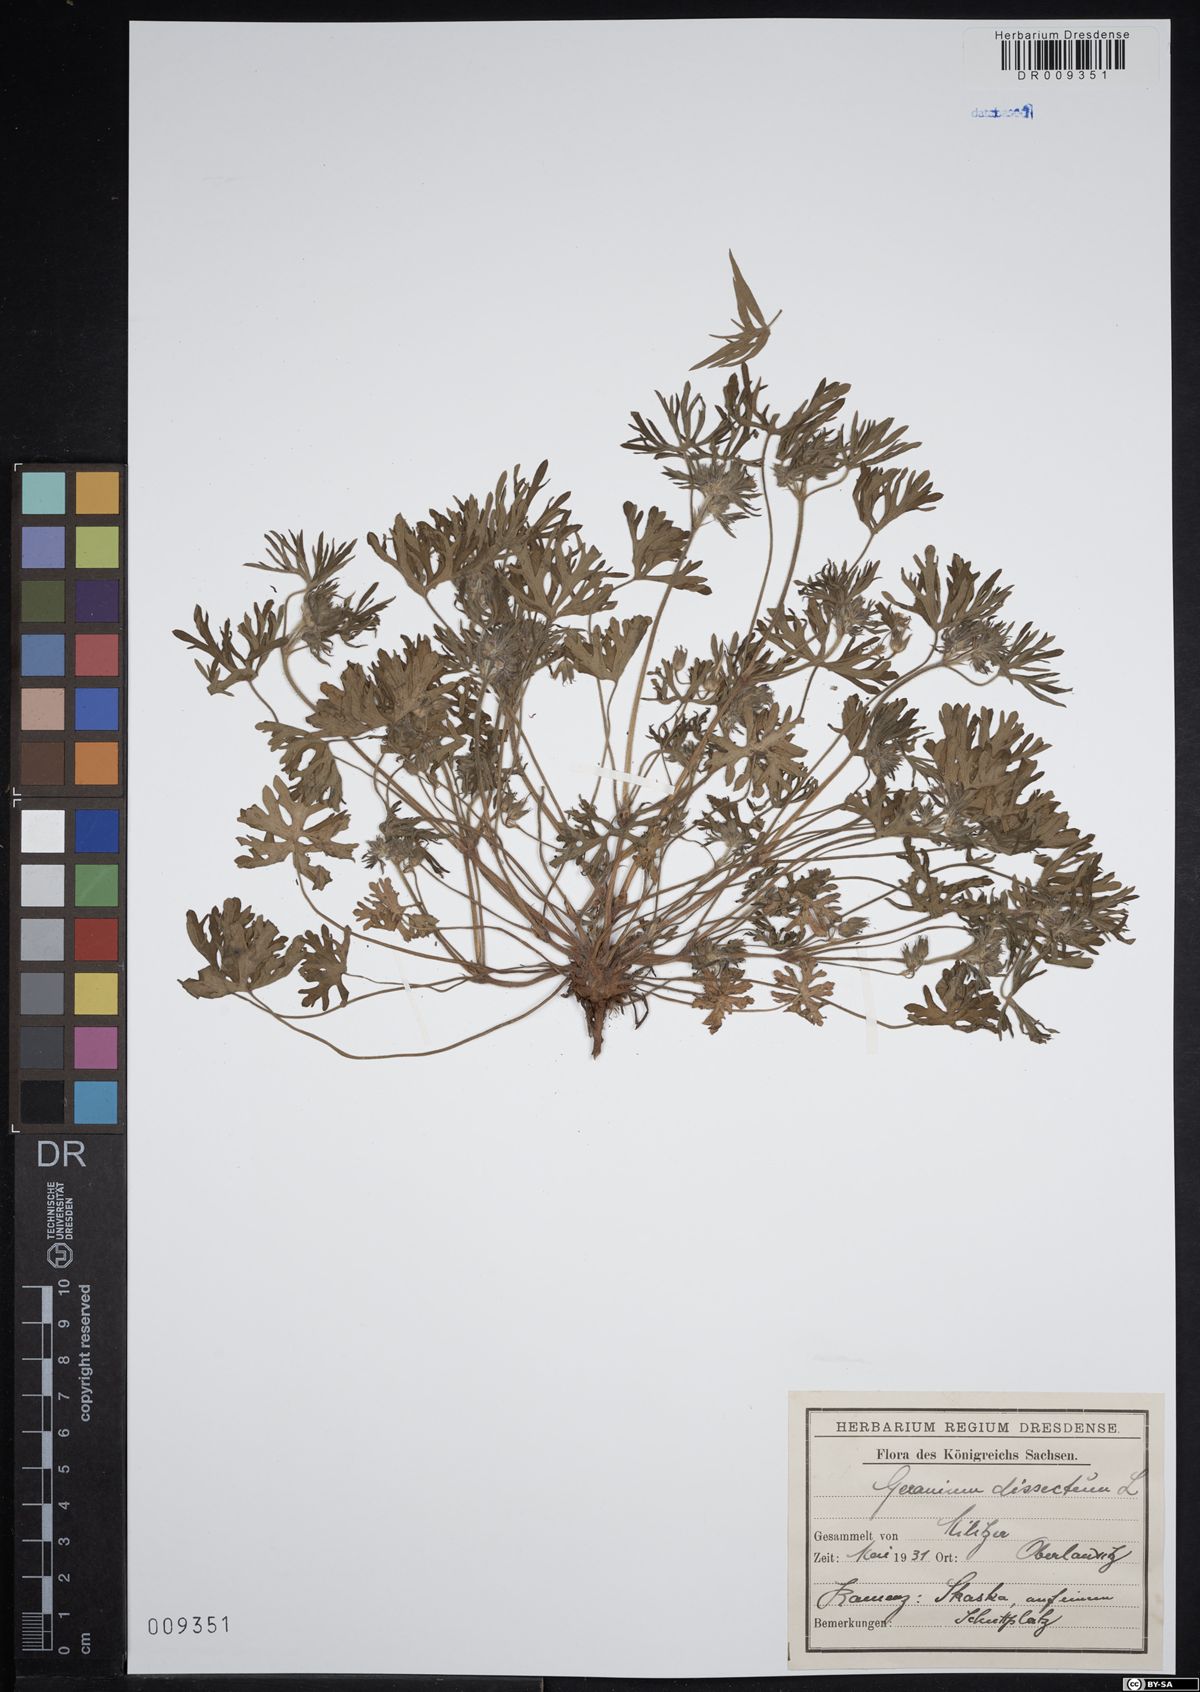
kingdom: Plantae
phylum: Tracheophyta
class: Magnoliopsida
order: Geraniales
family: Geraniaceae
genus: Geranium
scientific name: Geranium dissectum
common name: Cut-leaved crane's-bill
